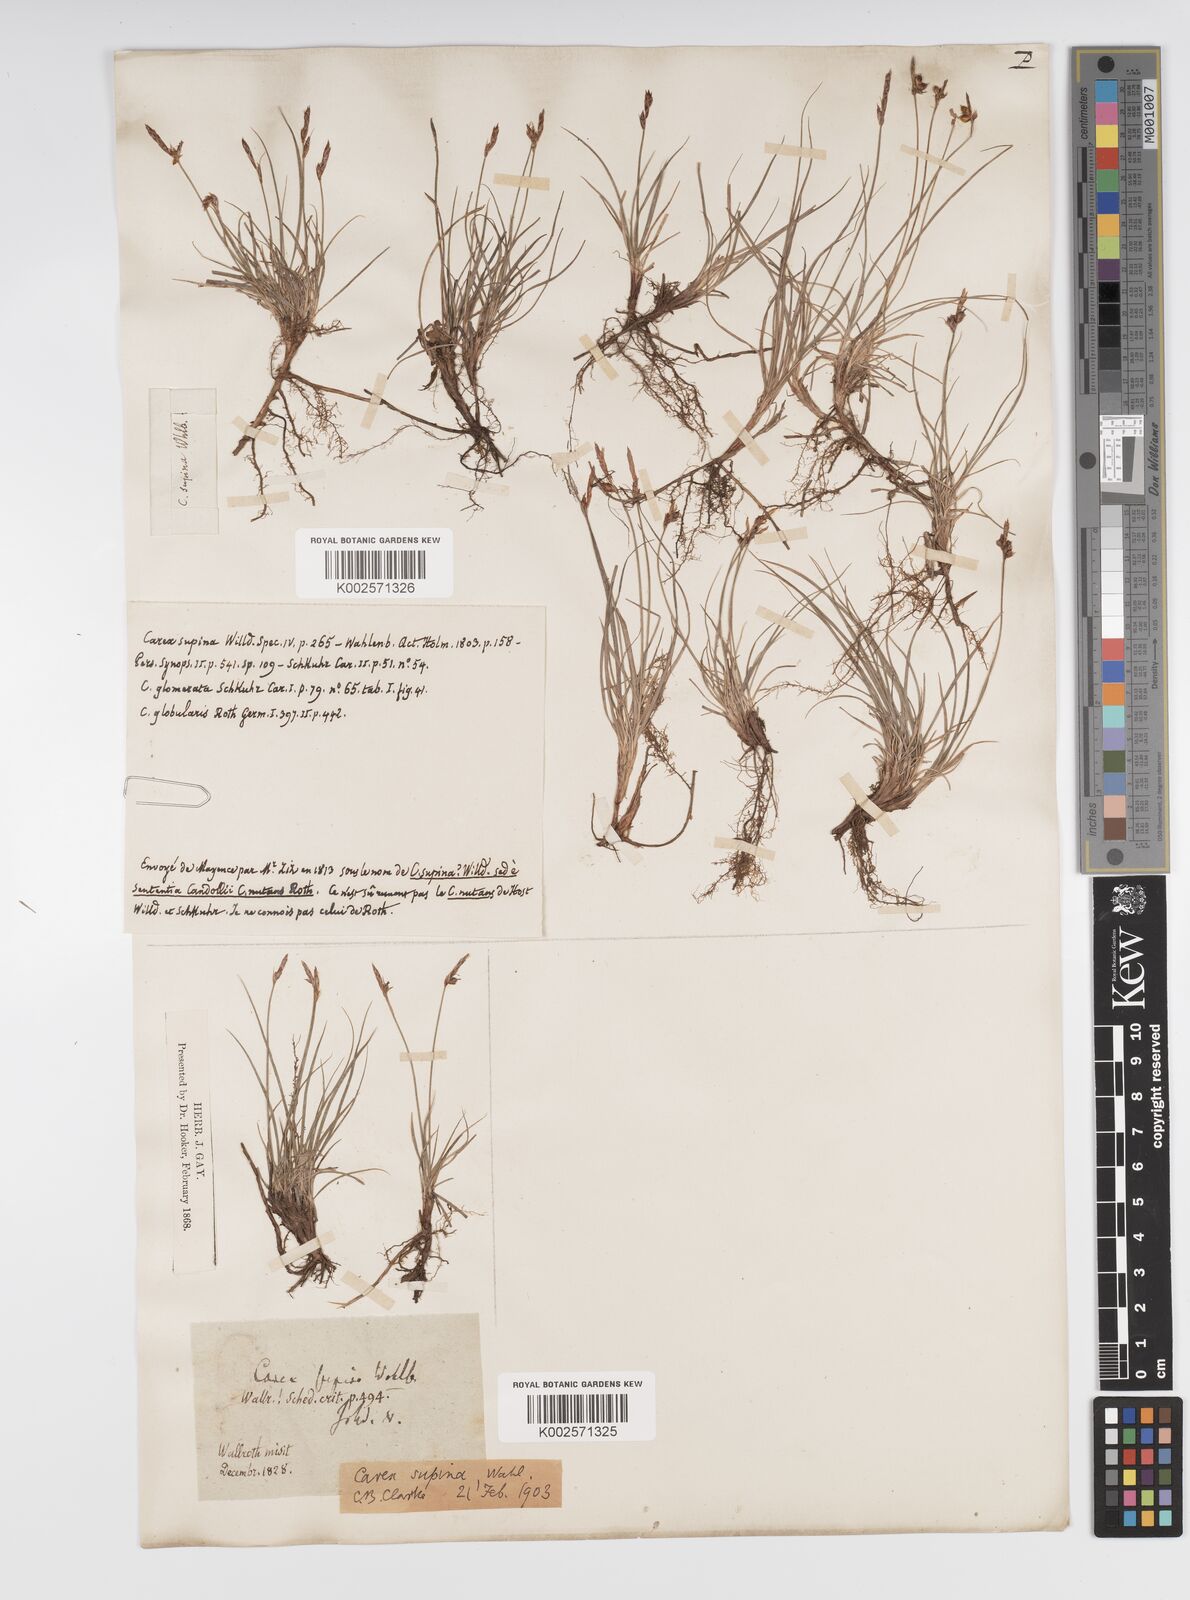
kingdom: Plantae
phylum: Tracheophyta
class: Liliopsida
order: Poales
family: Cyperaceae
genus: Carex
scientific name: Carex supina
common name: Lying-back sedge
